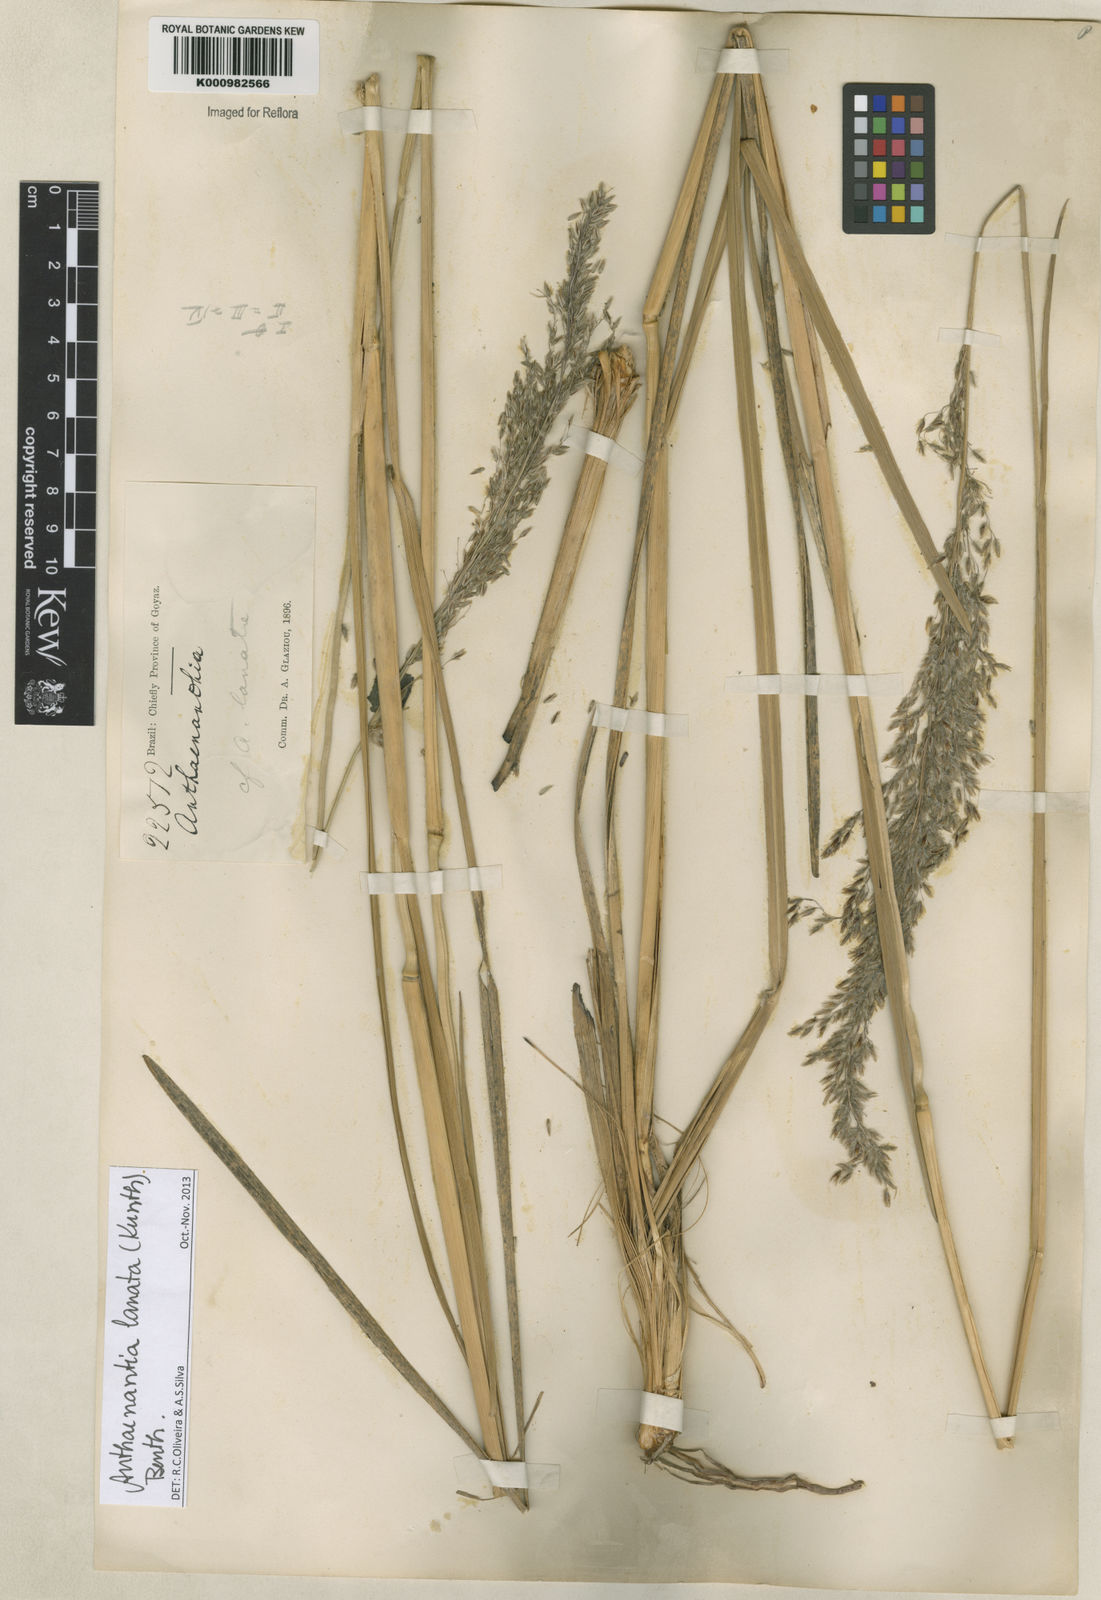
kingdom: Plantae
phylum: Tracheophyta
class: Liliopsida
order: Poales
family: Poaceae
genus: Anthenantia
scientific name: Anthenantia lanata
